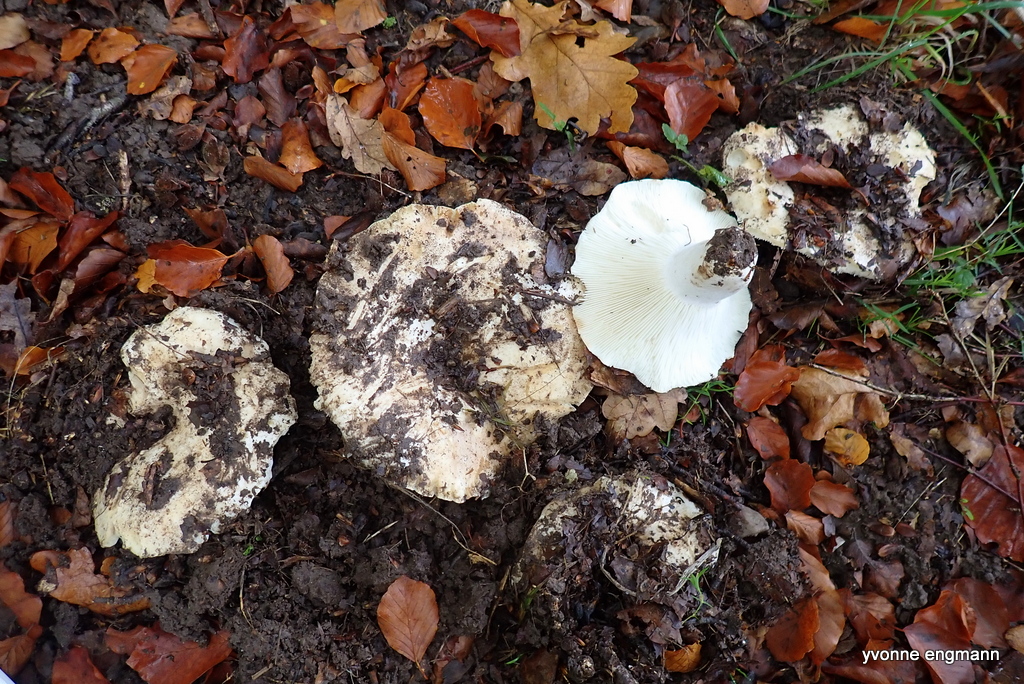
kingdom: Fungi
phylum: Basidiomycota
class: Agaricomycetes
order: Russulales
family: Russulaceae
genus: Russula
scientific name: Russula chloroides
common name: grønhalset tragt-skørhat
